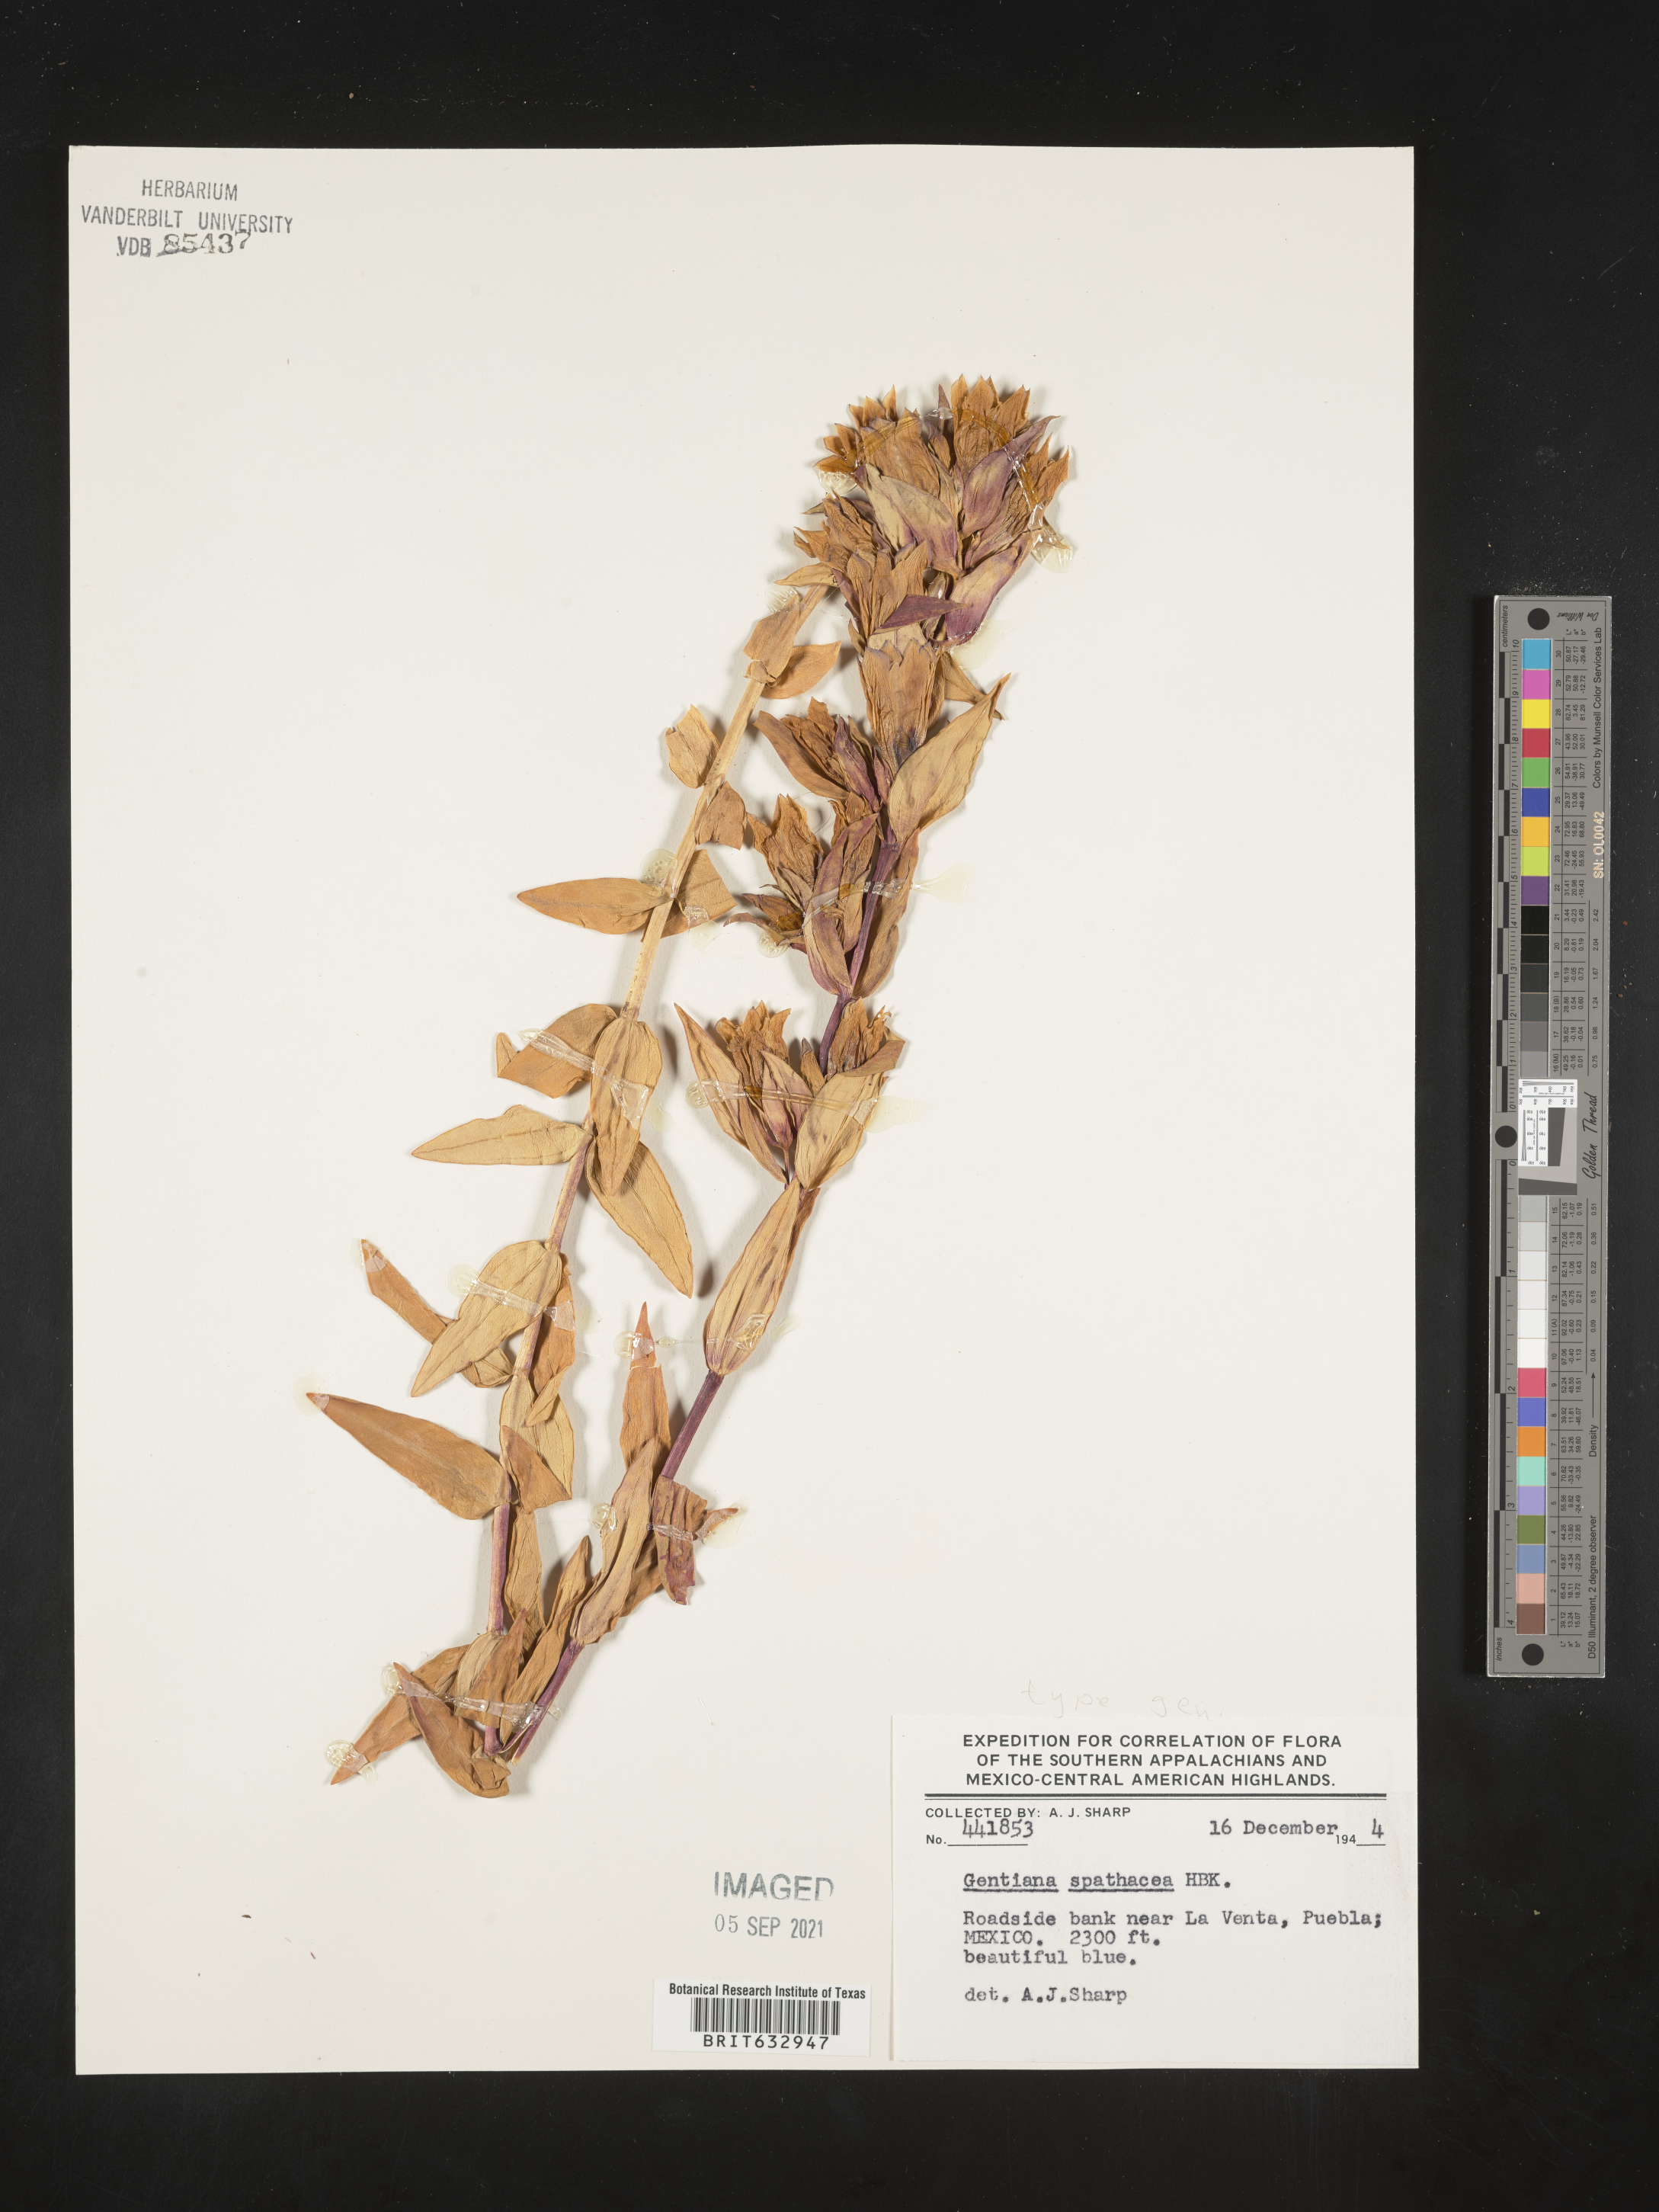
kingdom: Plantae
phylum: Tracheophyta
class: Magnoliopsida
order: Gentianales
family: Gentianaceae
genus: Gentiana
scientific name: Gentiana
